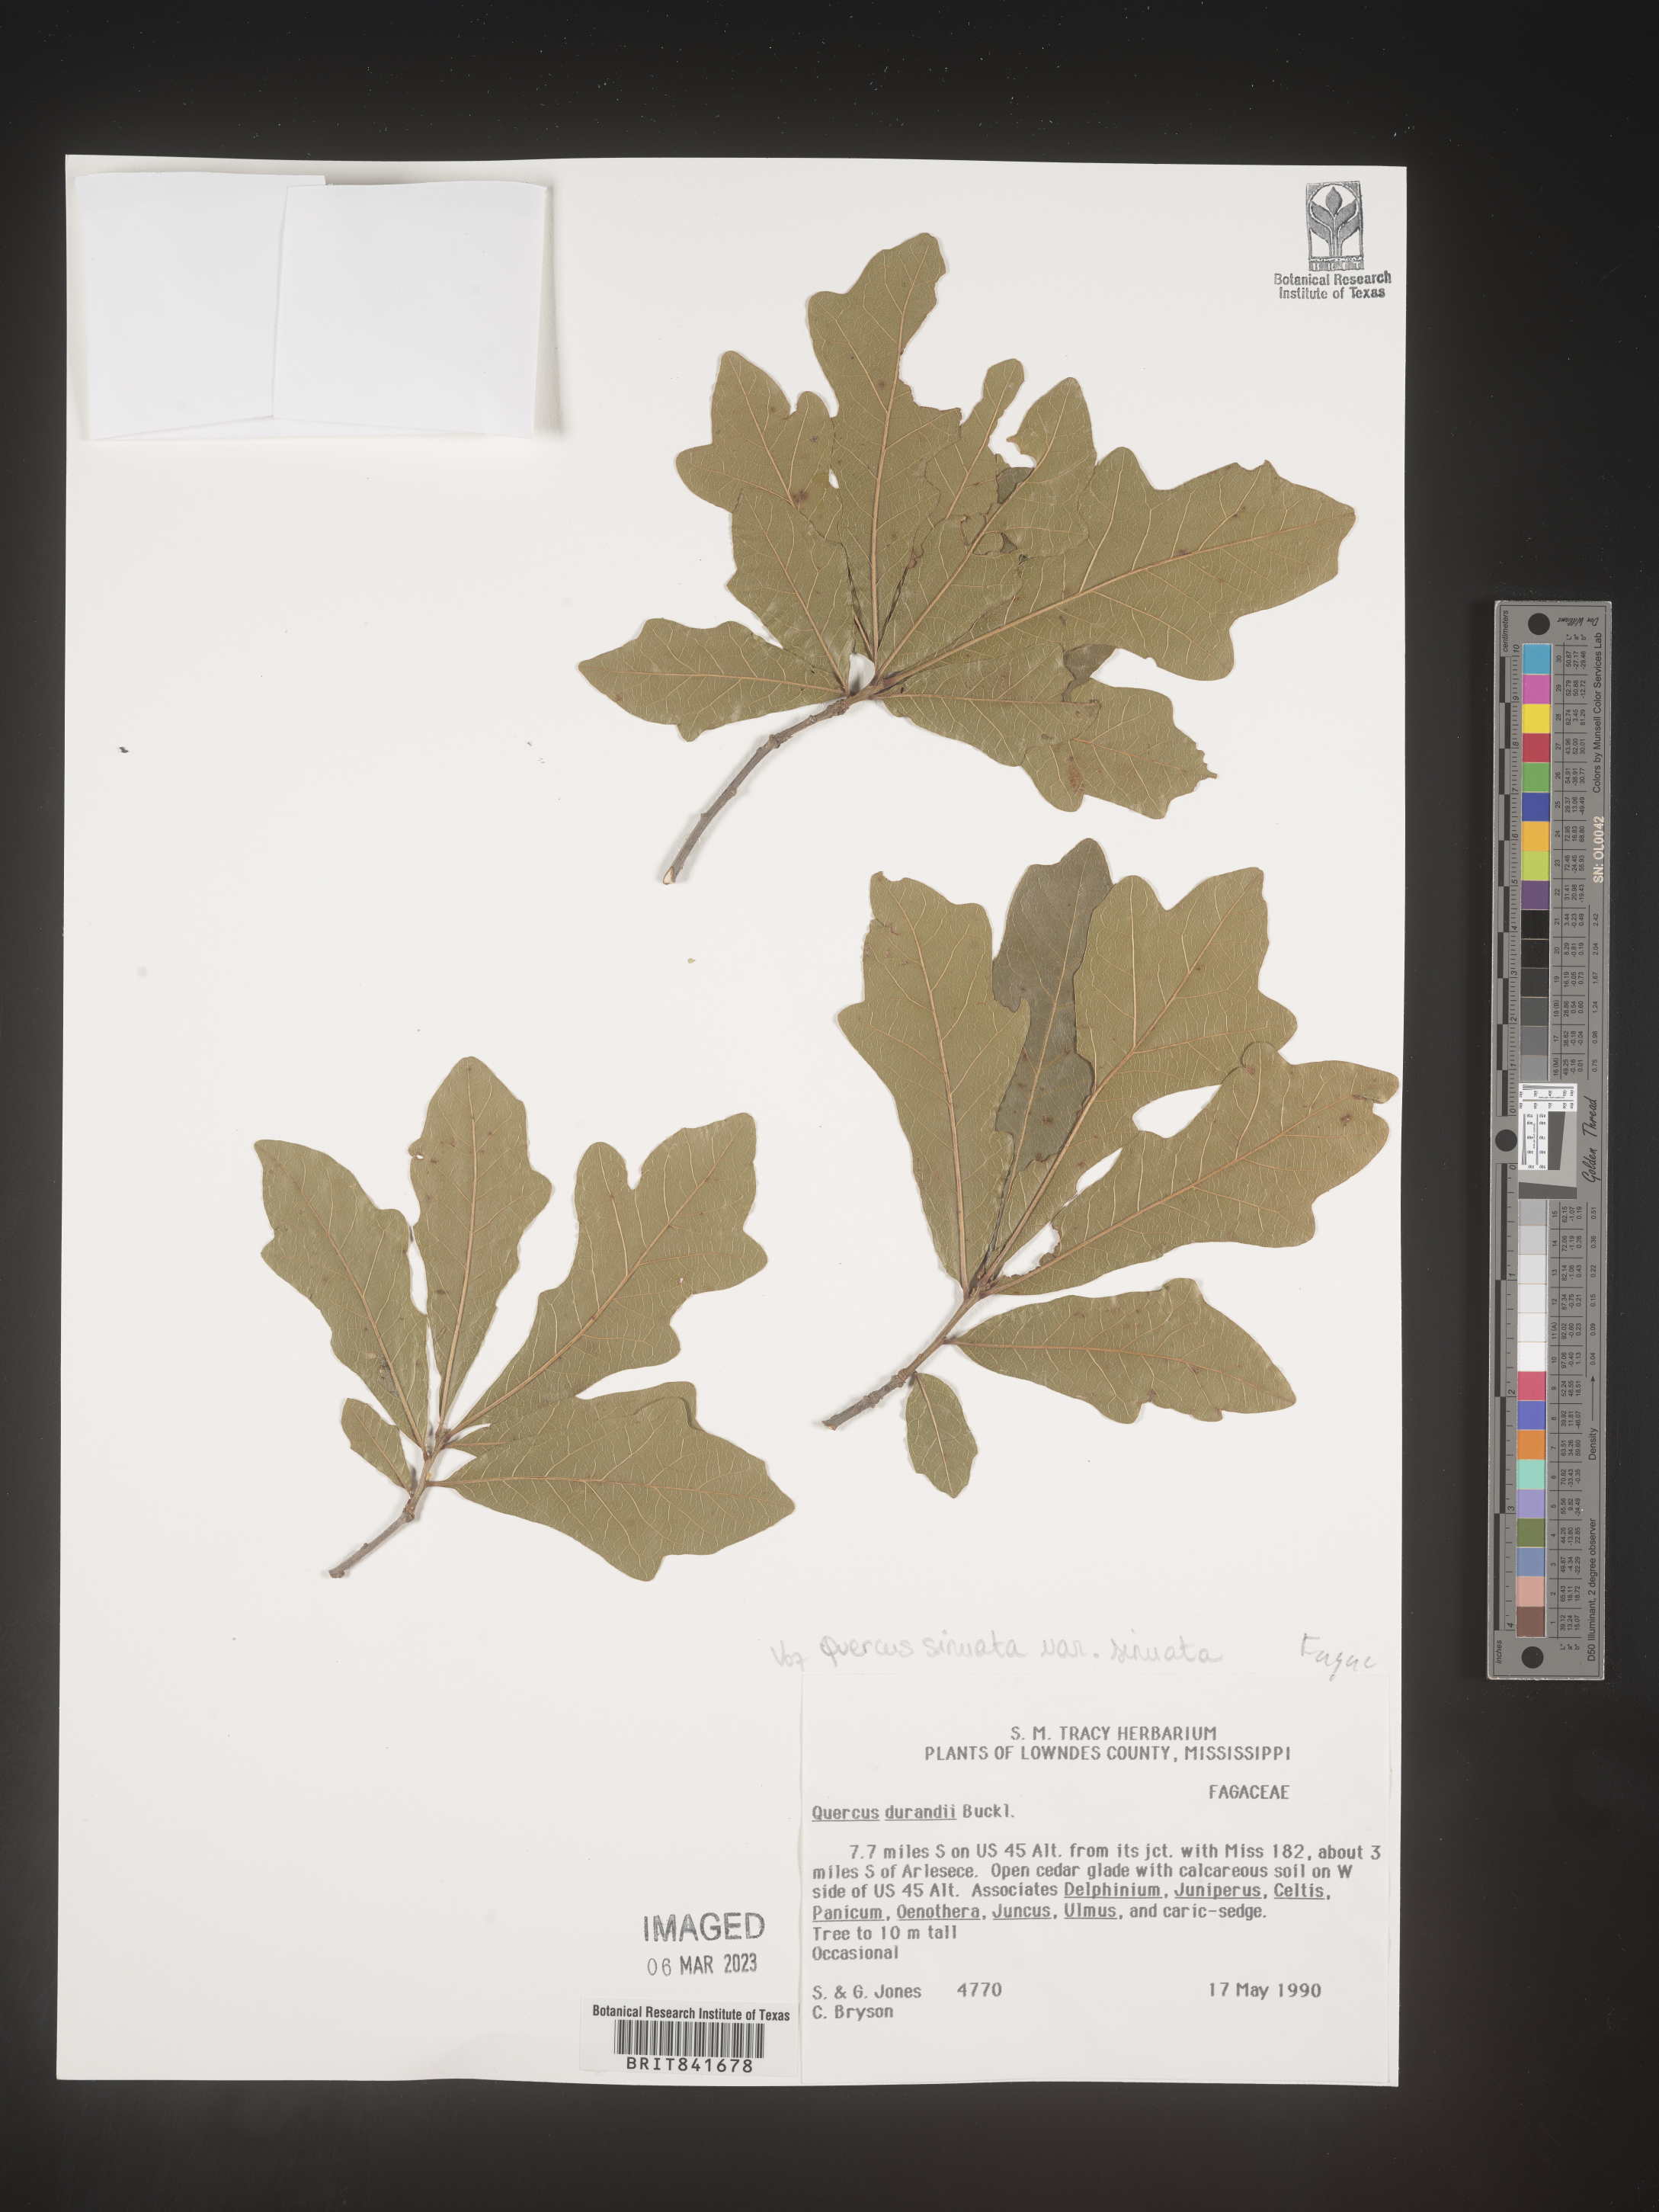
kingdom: Plantae
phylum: Tracheophyta
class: Magnoliopsida
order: Fagales
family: Fagaceae
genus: Quercus
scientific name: Quercus
